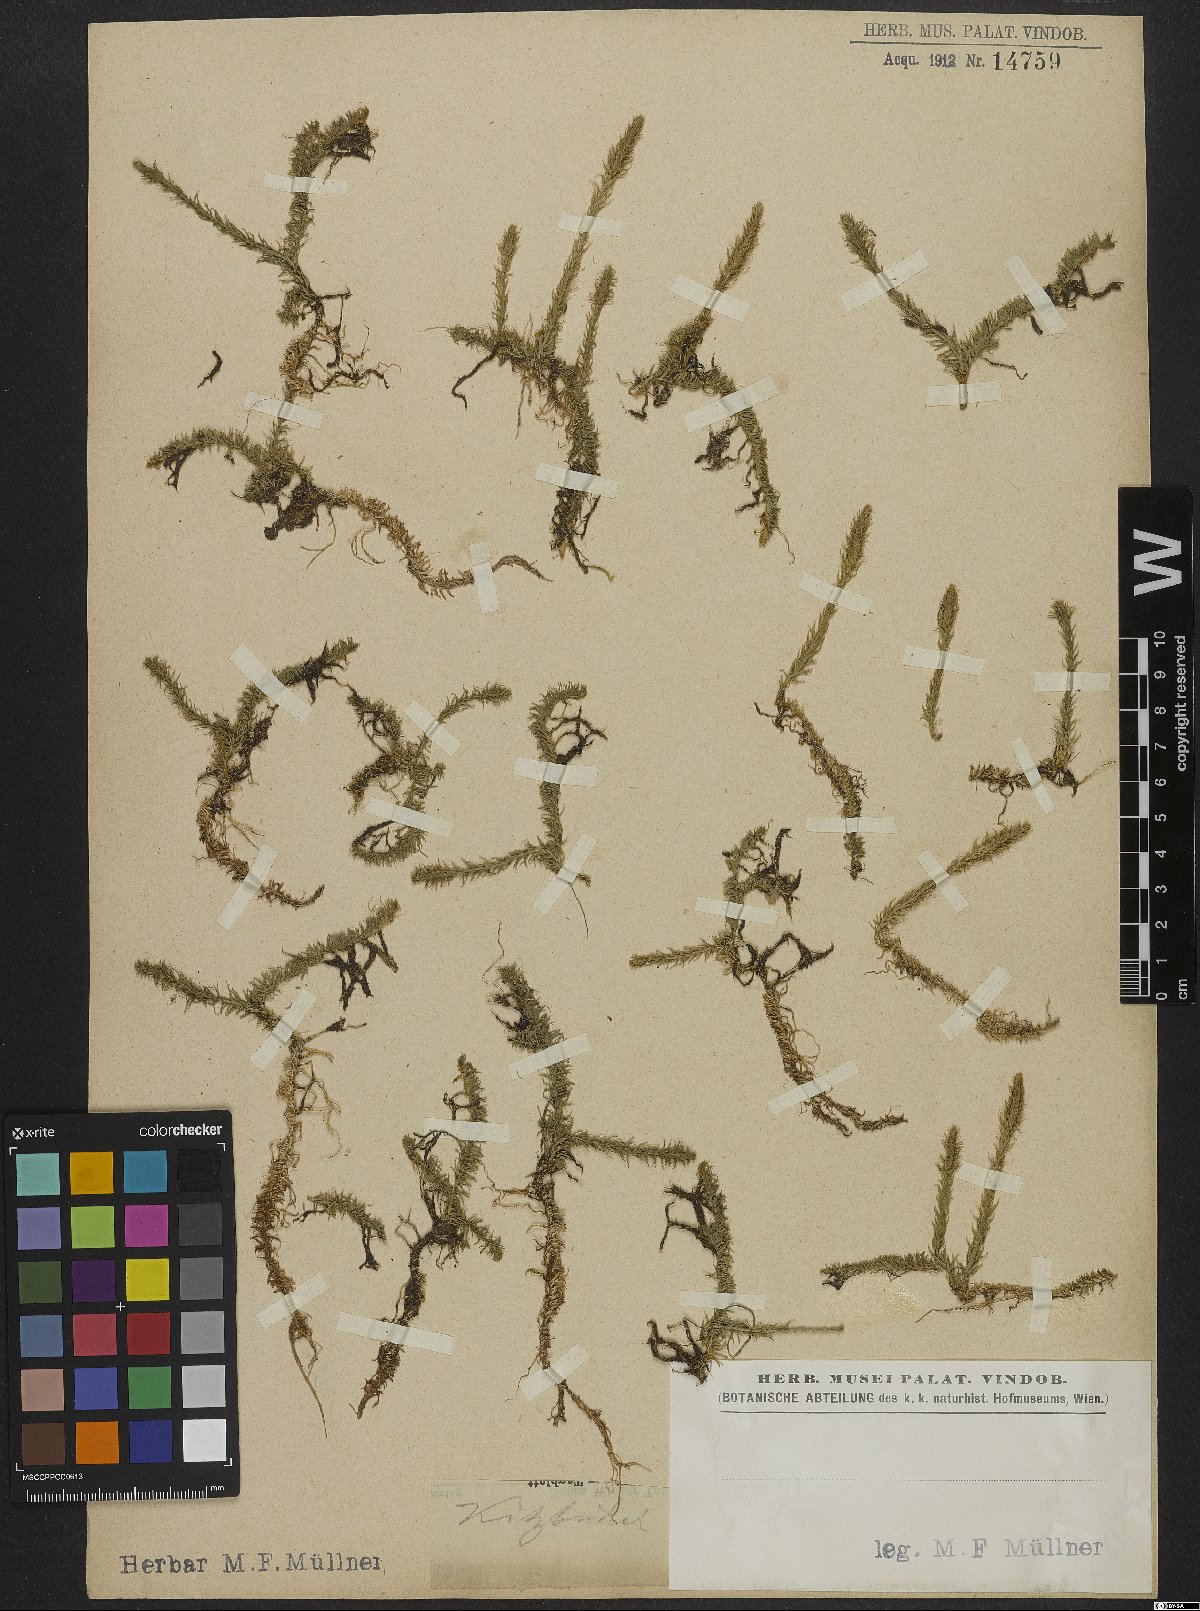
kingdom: Plantae
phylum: Tracheophyta
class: Lycopodiopsida
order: Lycopodiales
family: Lycopodiaceae
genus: Lycopodiella
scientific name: Lycopodiella inundata
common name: Marsh clubmoss
